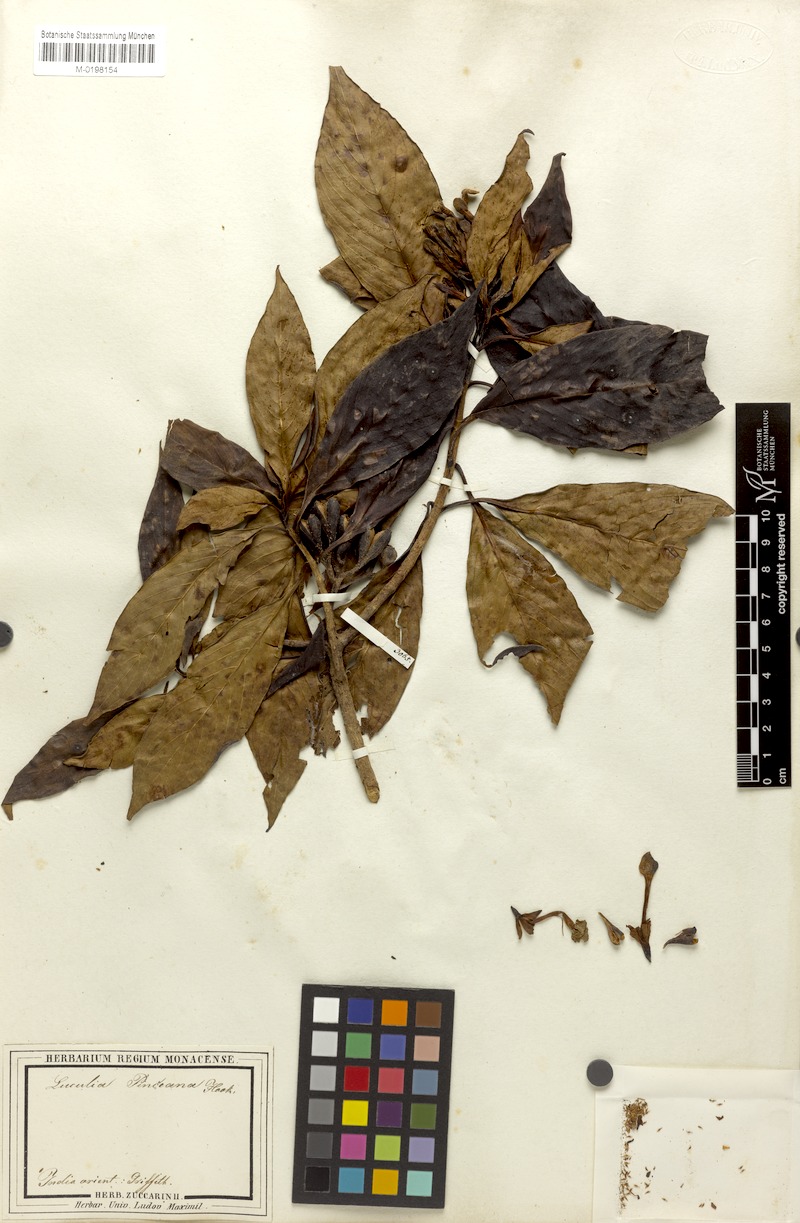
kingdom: Plantae
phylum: Tracheophyta
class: Magnoliopsida
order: Gentianales
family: Rubiaceae
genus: Luculia
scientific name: Luculia pinceana
